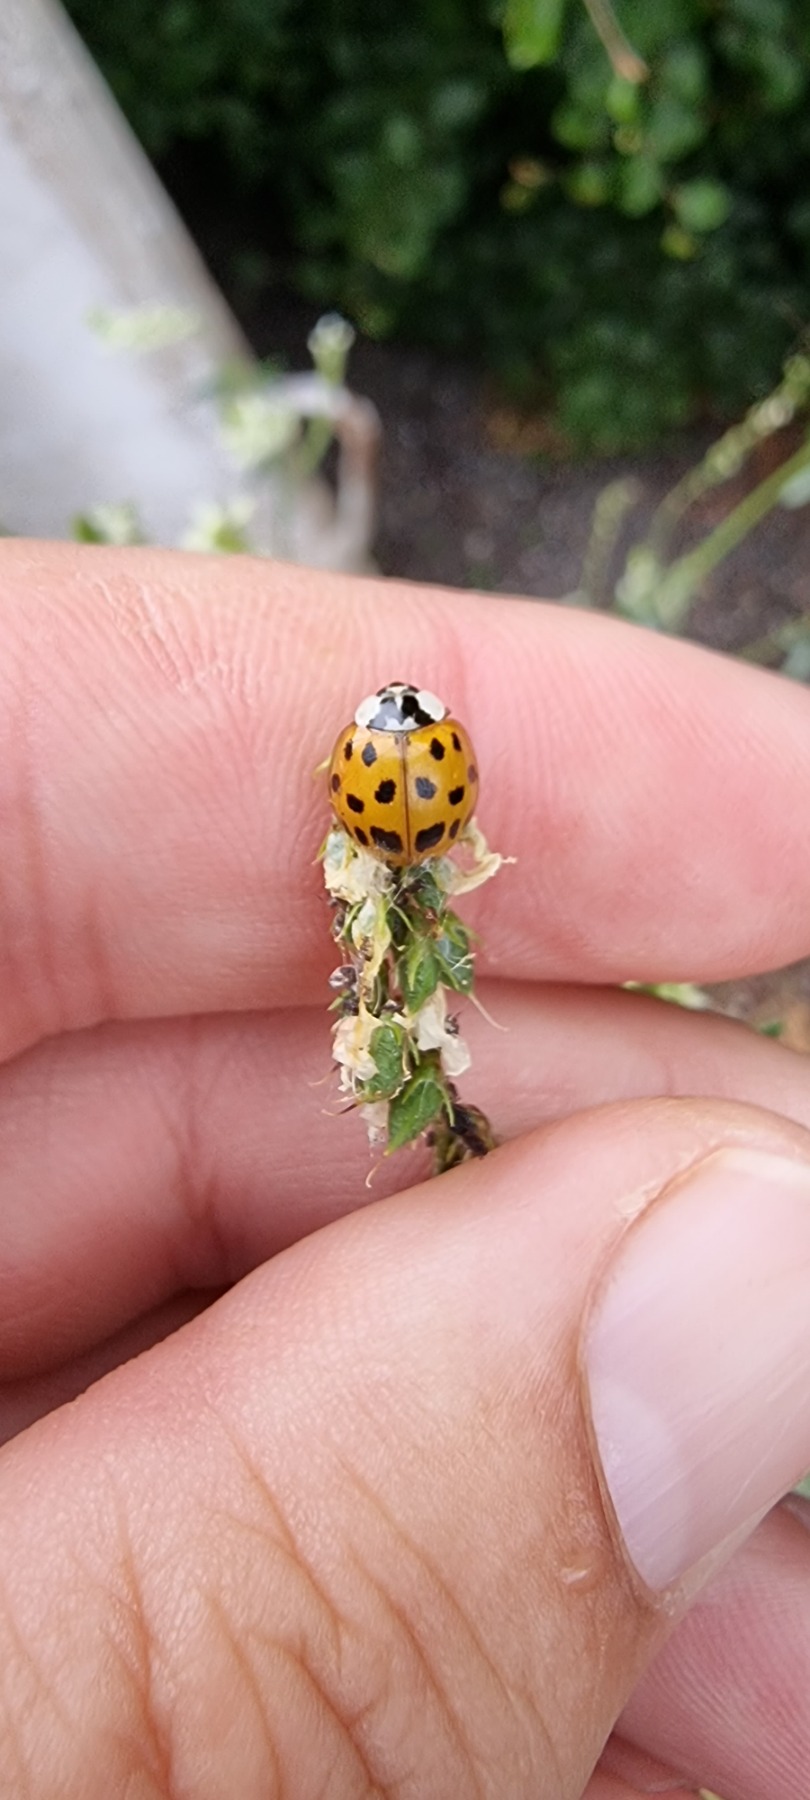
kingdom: Animalia
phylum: Arthropoda
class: Insecta
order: Coleoptera
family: Coccinellidae
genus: Harmonia
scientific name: Harmonia axyridis
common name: Harlekinmariehøne
